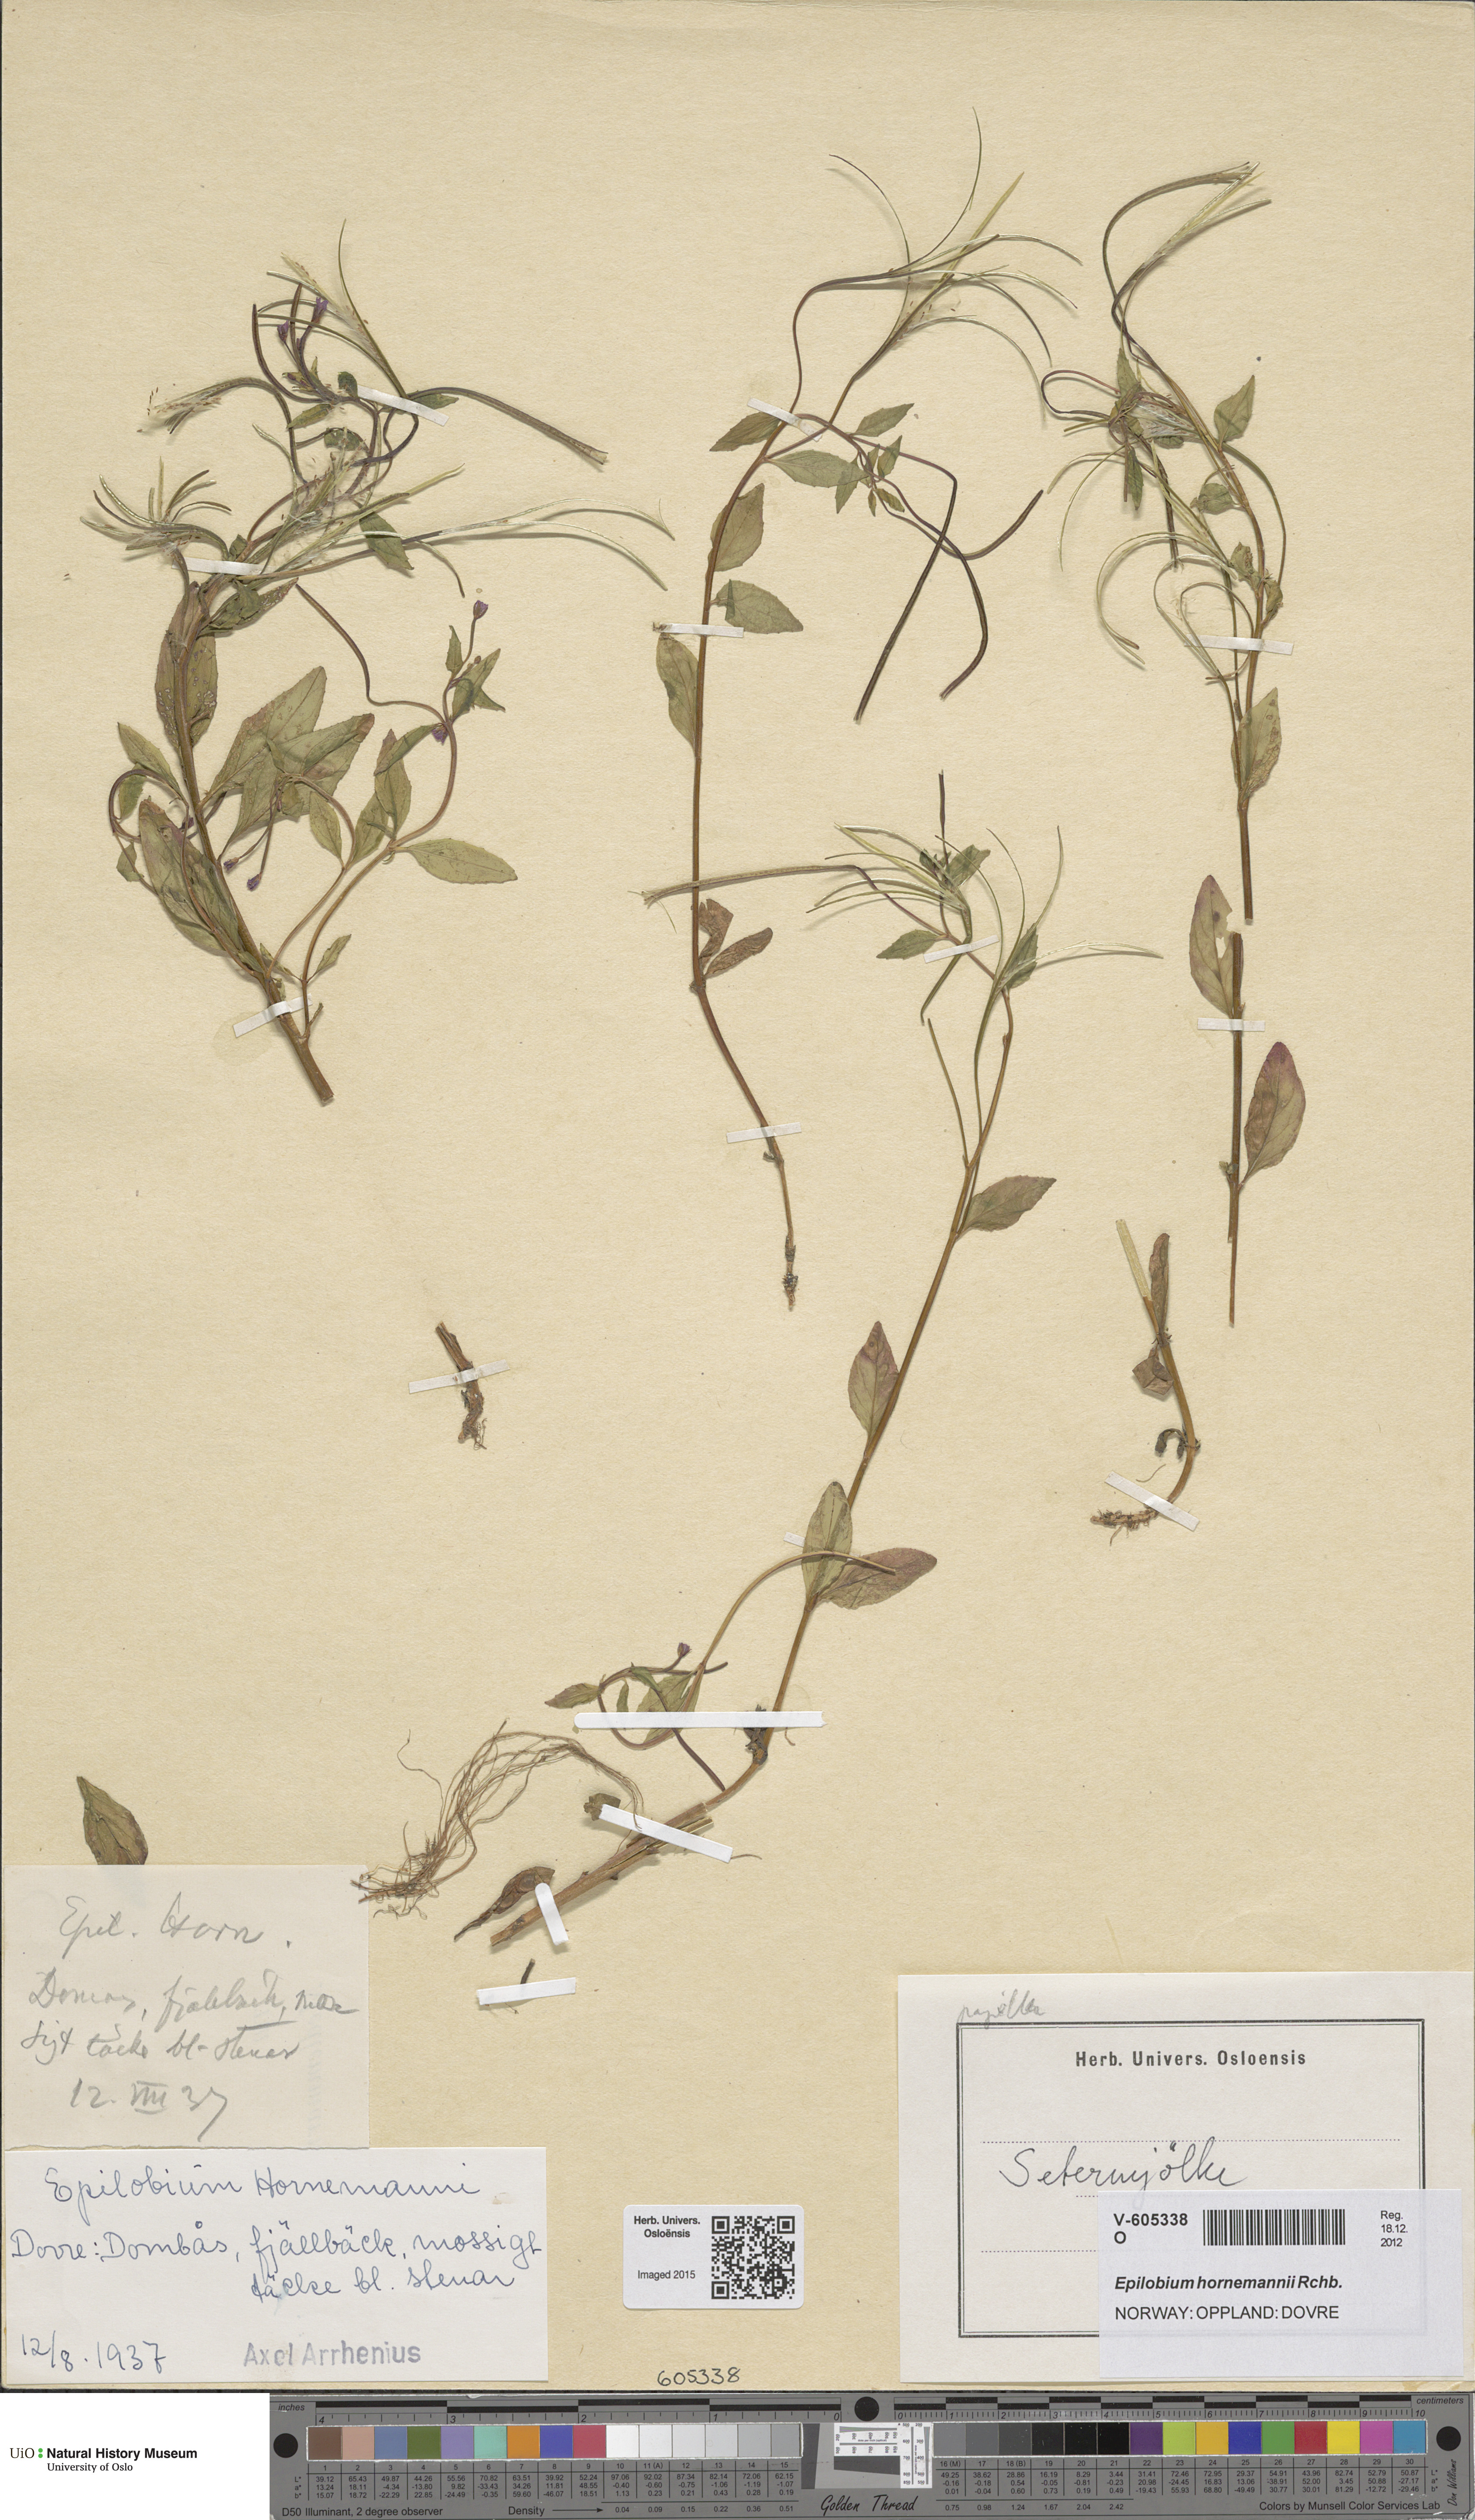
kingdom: Plantae
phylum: Tracheophyta
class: Magnoliopsida
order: Myrtales
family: Onagraceae
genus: Epilobium
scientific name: Epilobium hornemannii
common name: Hornemann's willowherb
